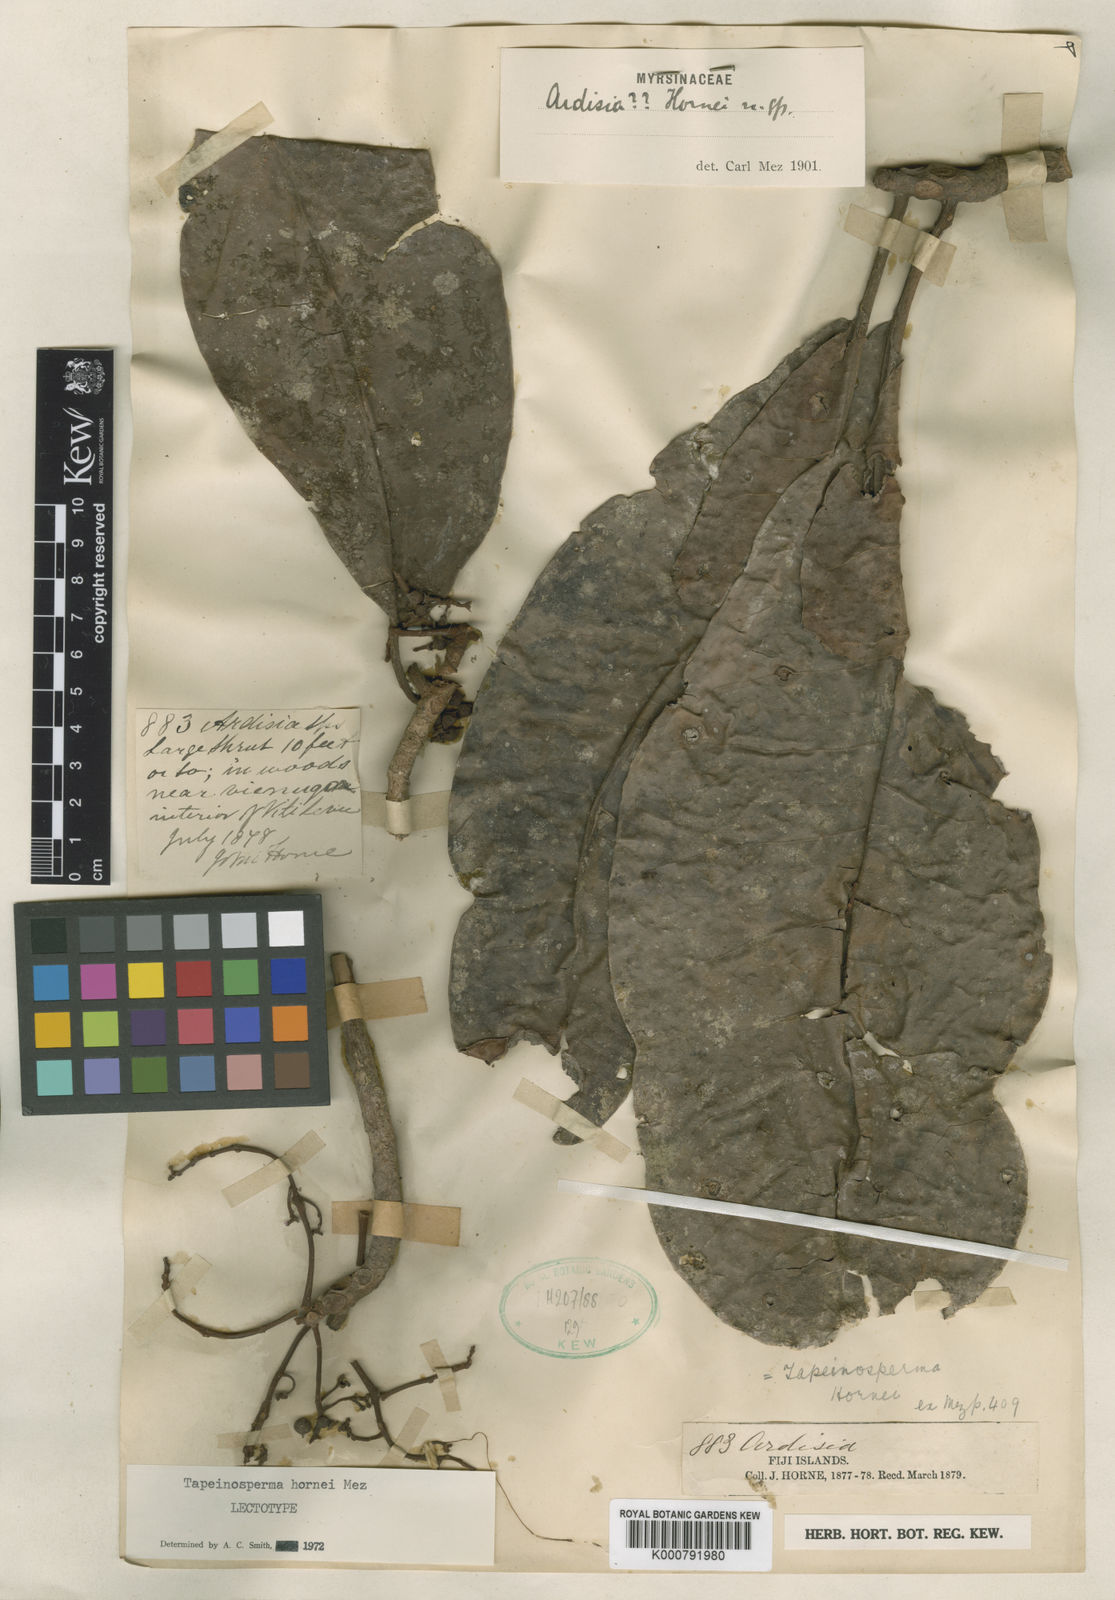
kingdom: Plantae
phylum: Tracheophyta
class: Magnoliopsida
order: Ericales
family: Primulaceae
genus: Tapeinosperma
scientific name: Tapeinosperma hornei
